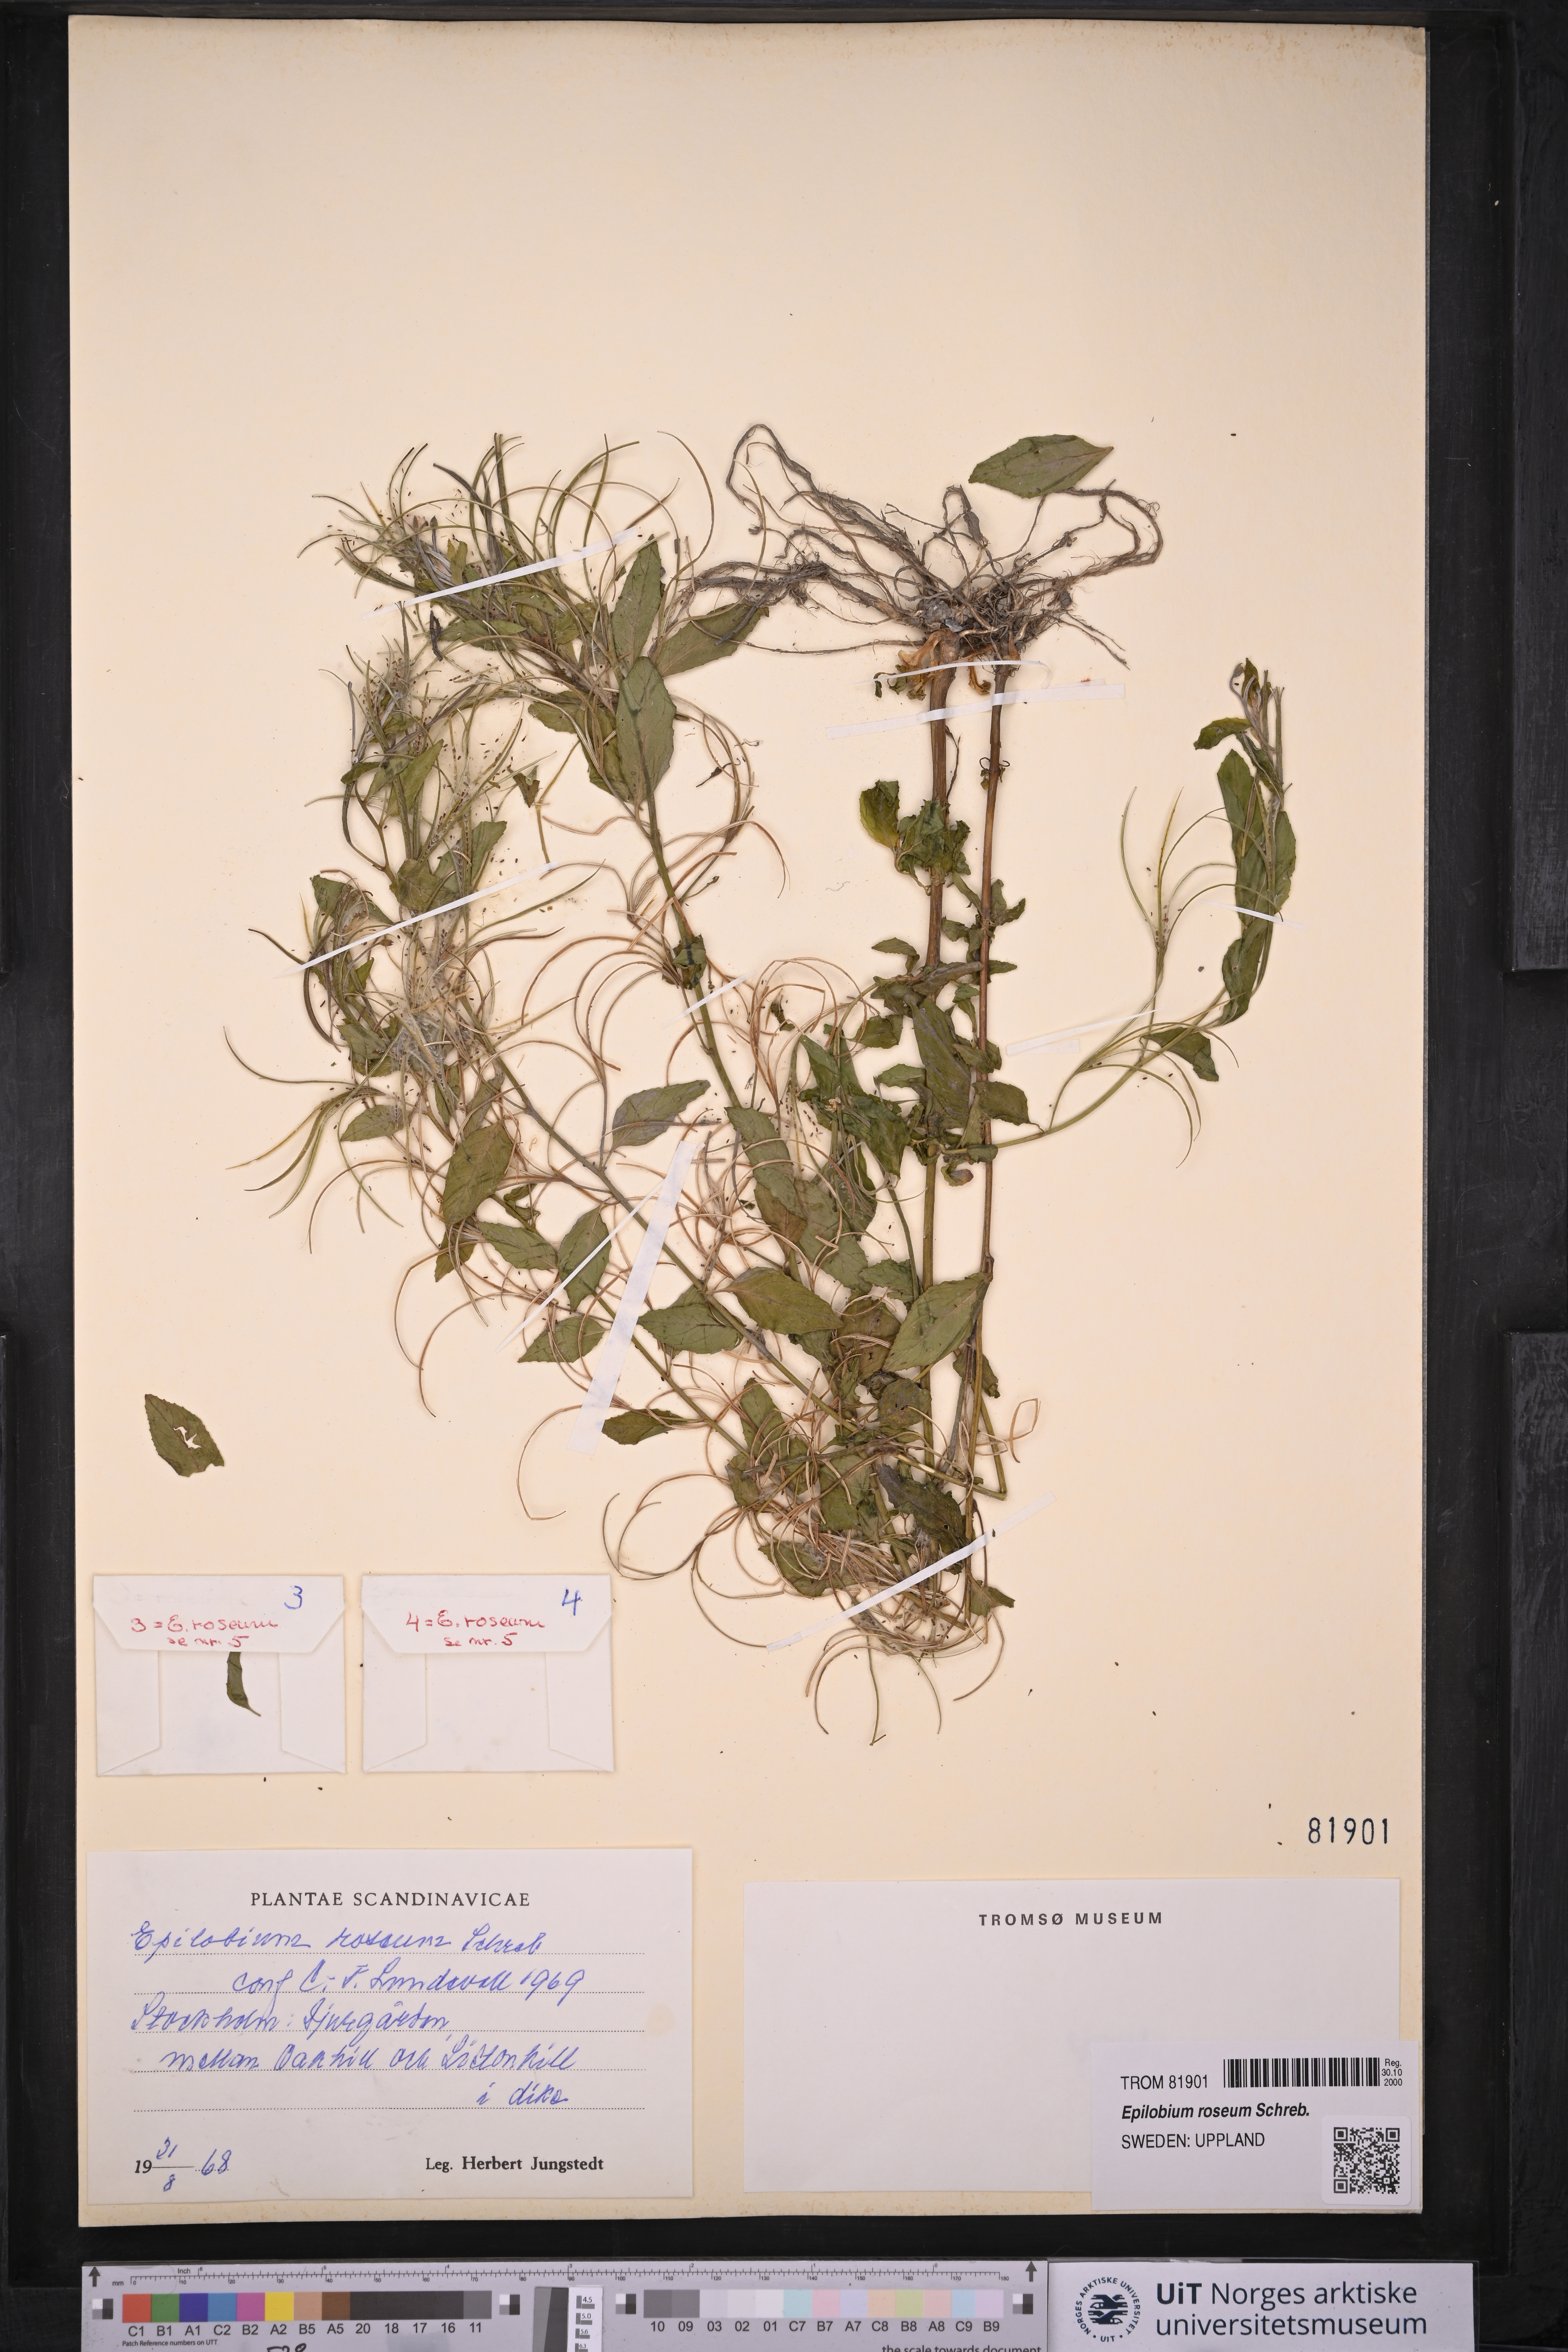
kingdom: Plantae
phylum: Tracheophyta
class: Magnoliopsida
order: Myrtales
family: Onagraceae
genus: Epilobium
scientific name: Epilobium roseum
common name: Pale willowherb
